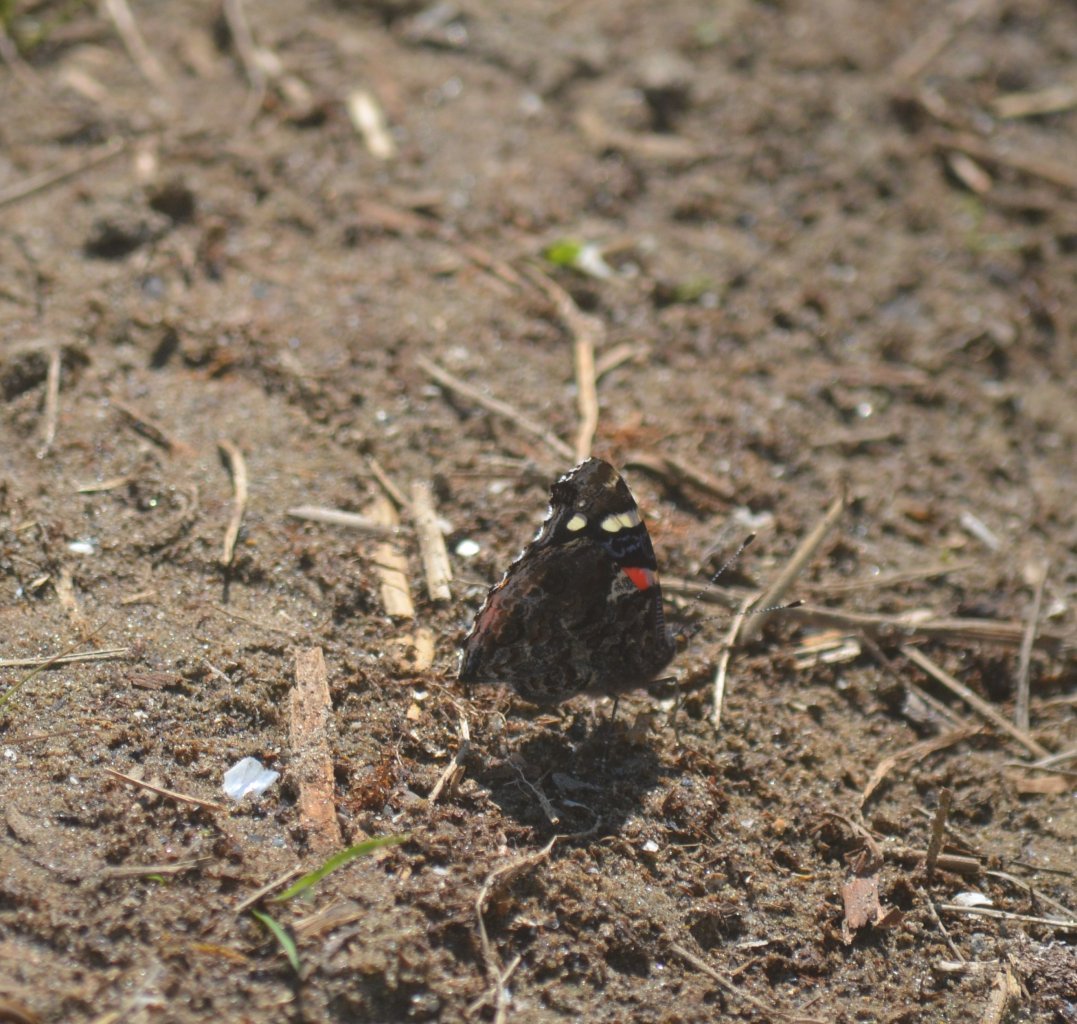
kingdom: Animalia
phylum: Arthropoda
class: Insecta
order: Lepidoptera
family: Nymphalidae
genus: Vanessa
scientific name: Vanessa atalanta
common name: Red Admiral
